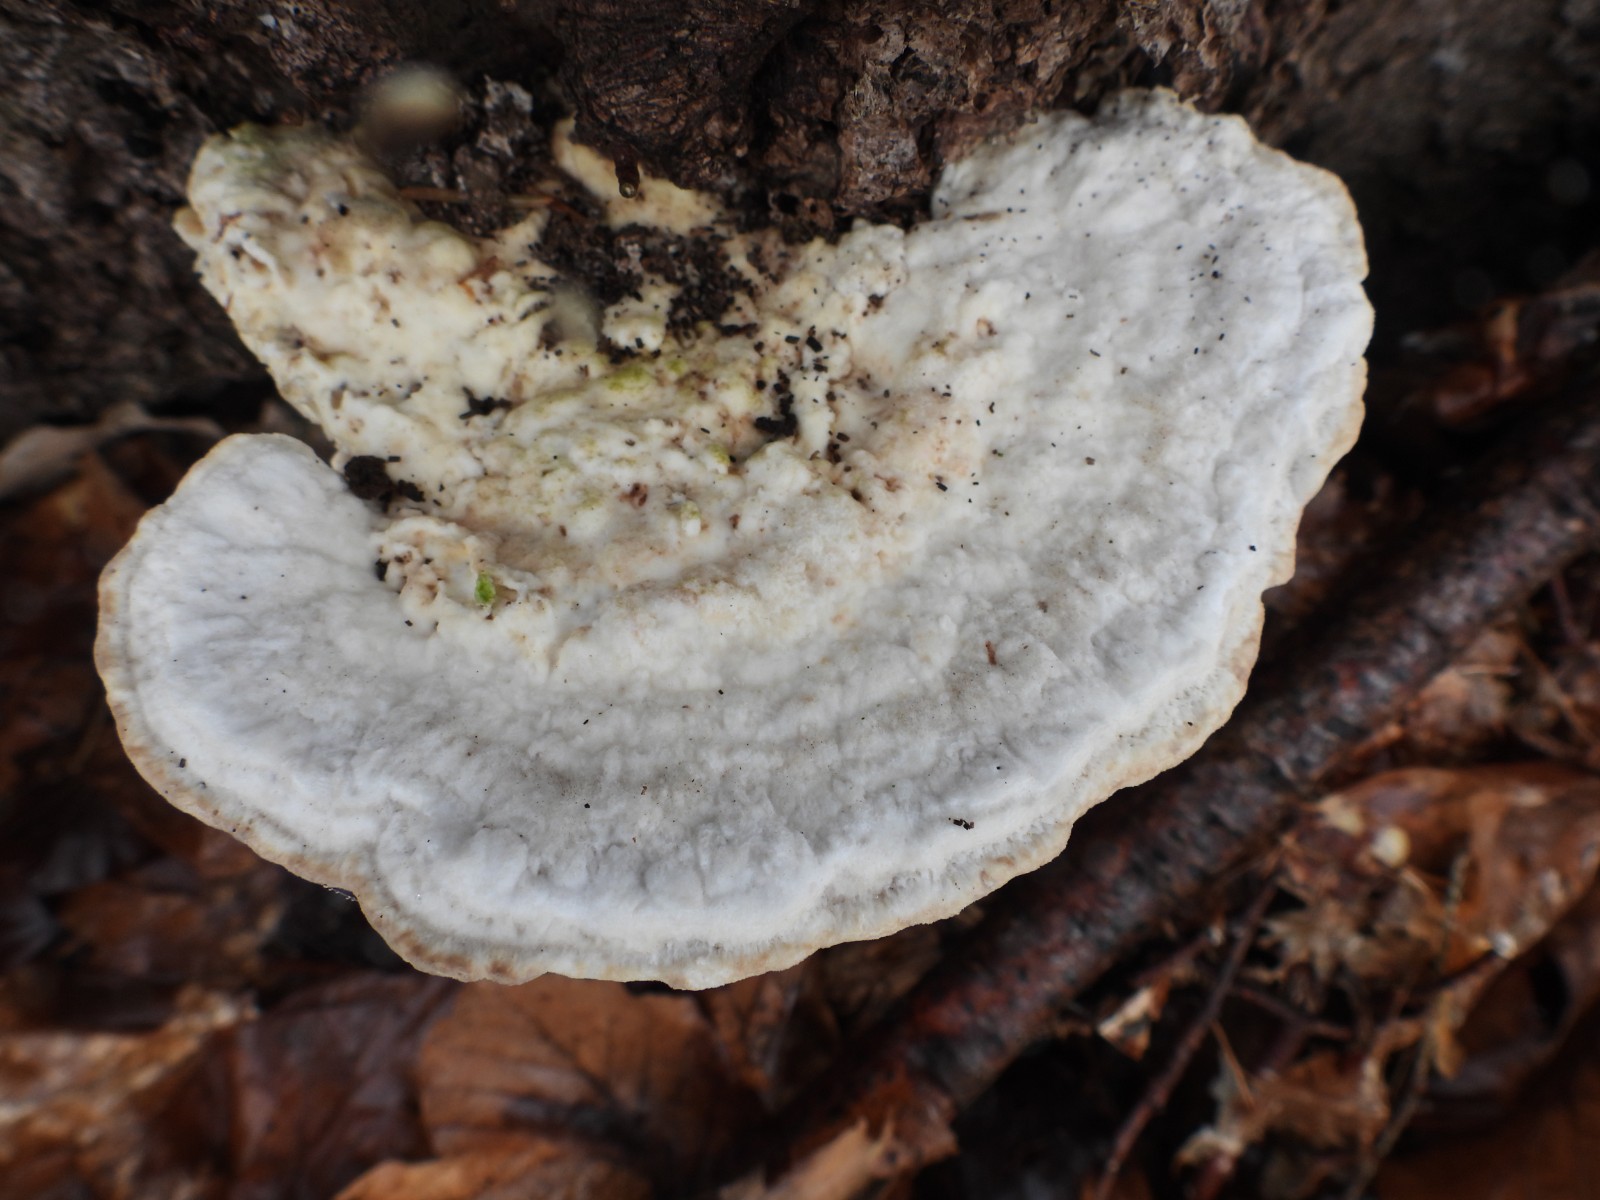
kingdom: Fungi
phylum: Basidiomycota
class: Agaricomycetes
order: Polyporales
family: Polyporaceae
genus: Trametes
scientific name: Trametes gibbosa
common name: puklet læderporesvamp
